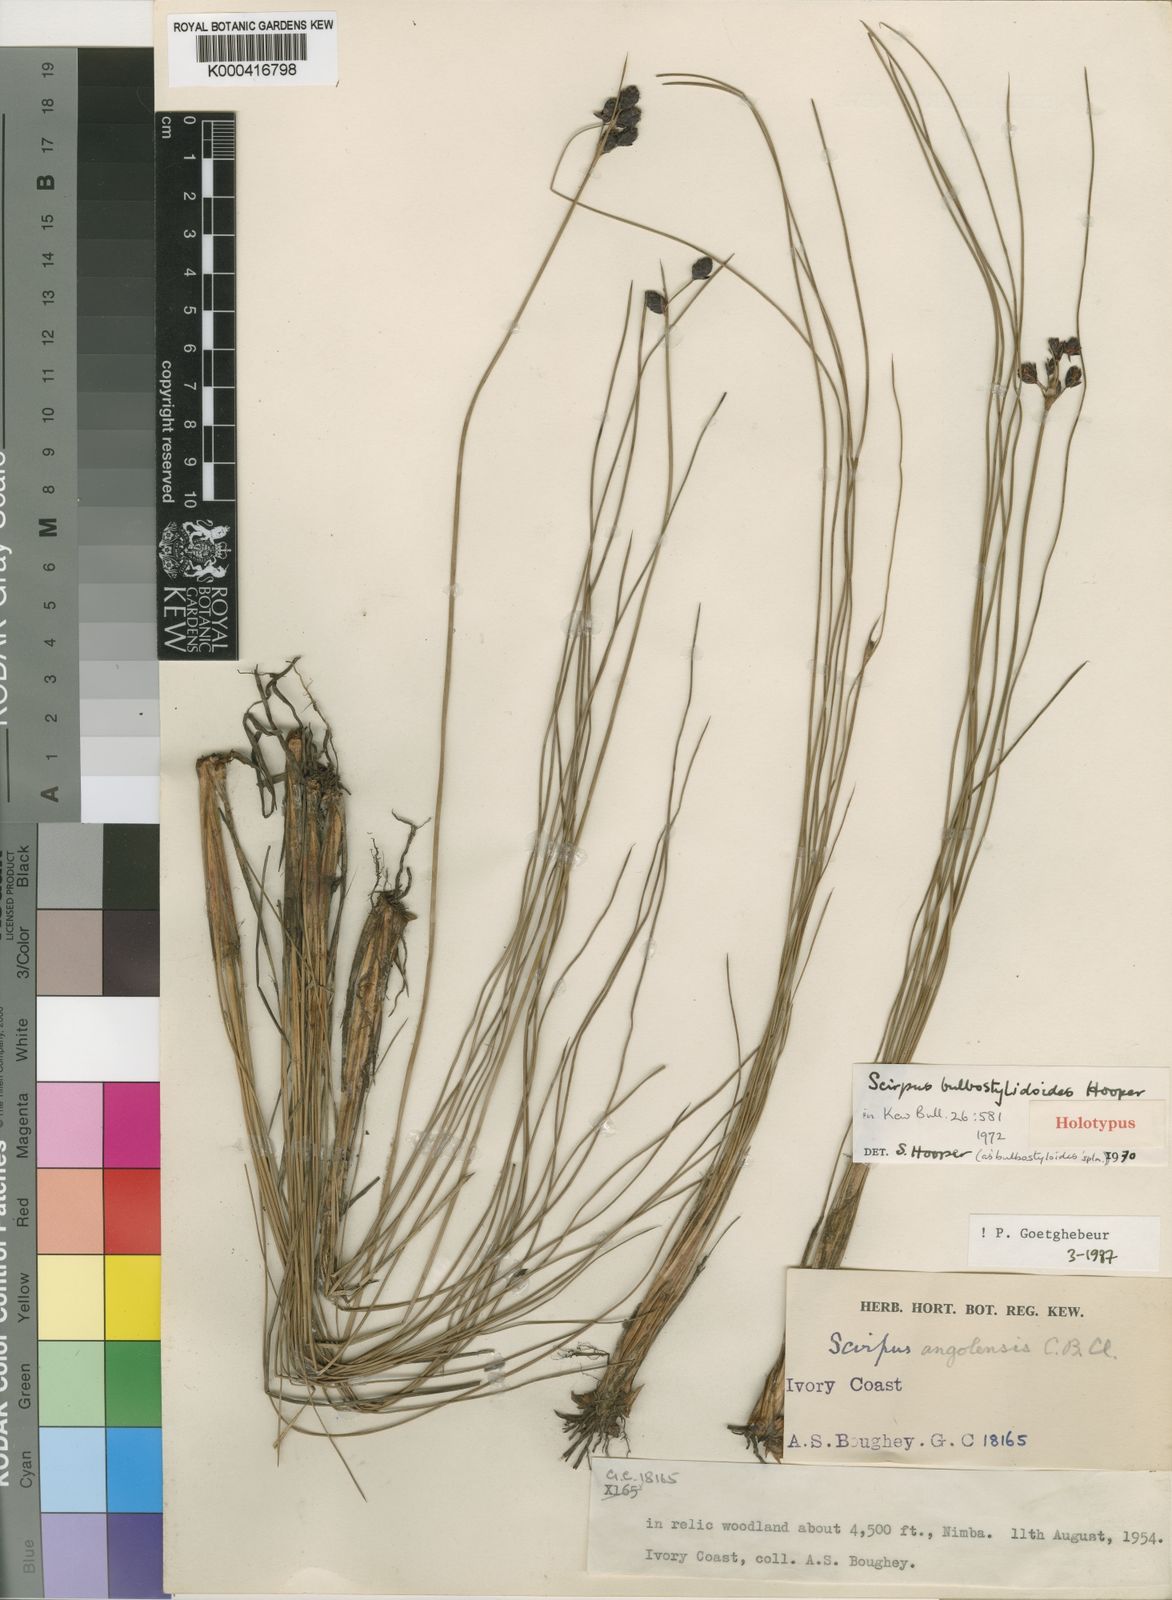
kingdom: Plantae
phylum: Tracheophyta
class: Liliopsida
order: Poales
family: Cyperaceae
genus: Bulbostylis
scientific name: Bulbostylis bulbostyloides
